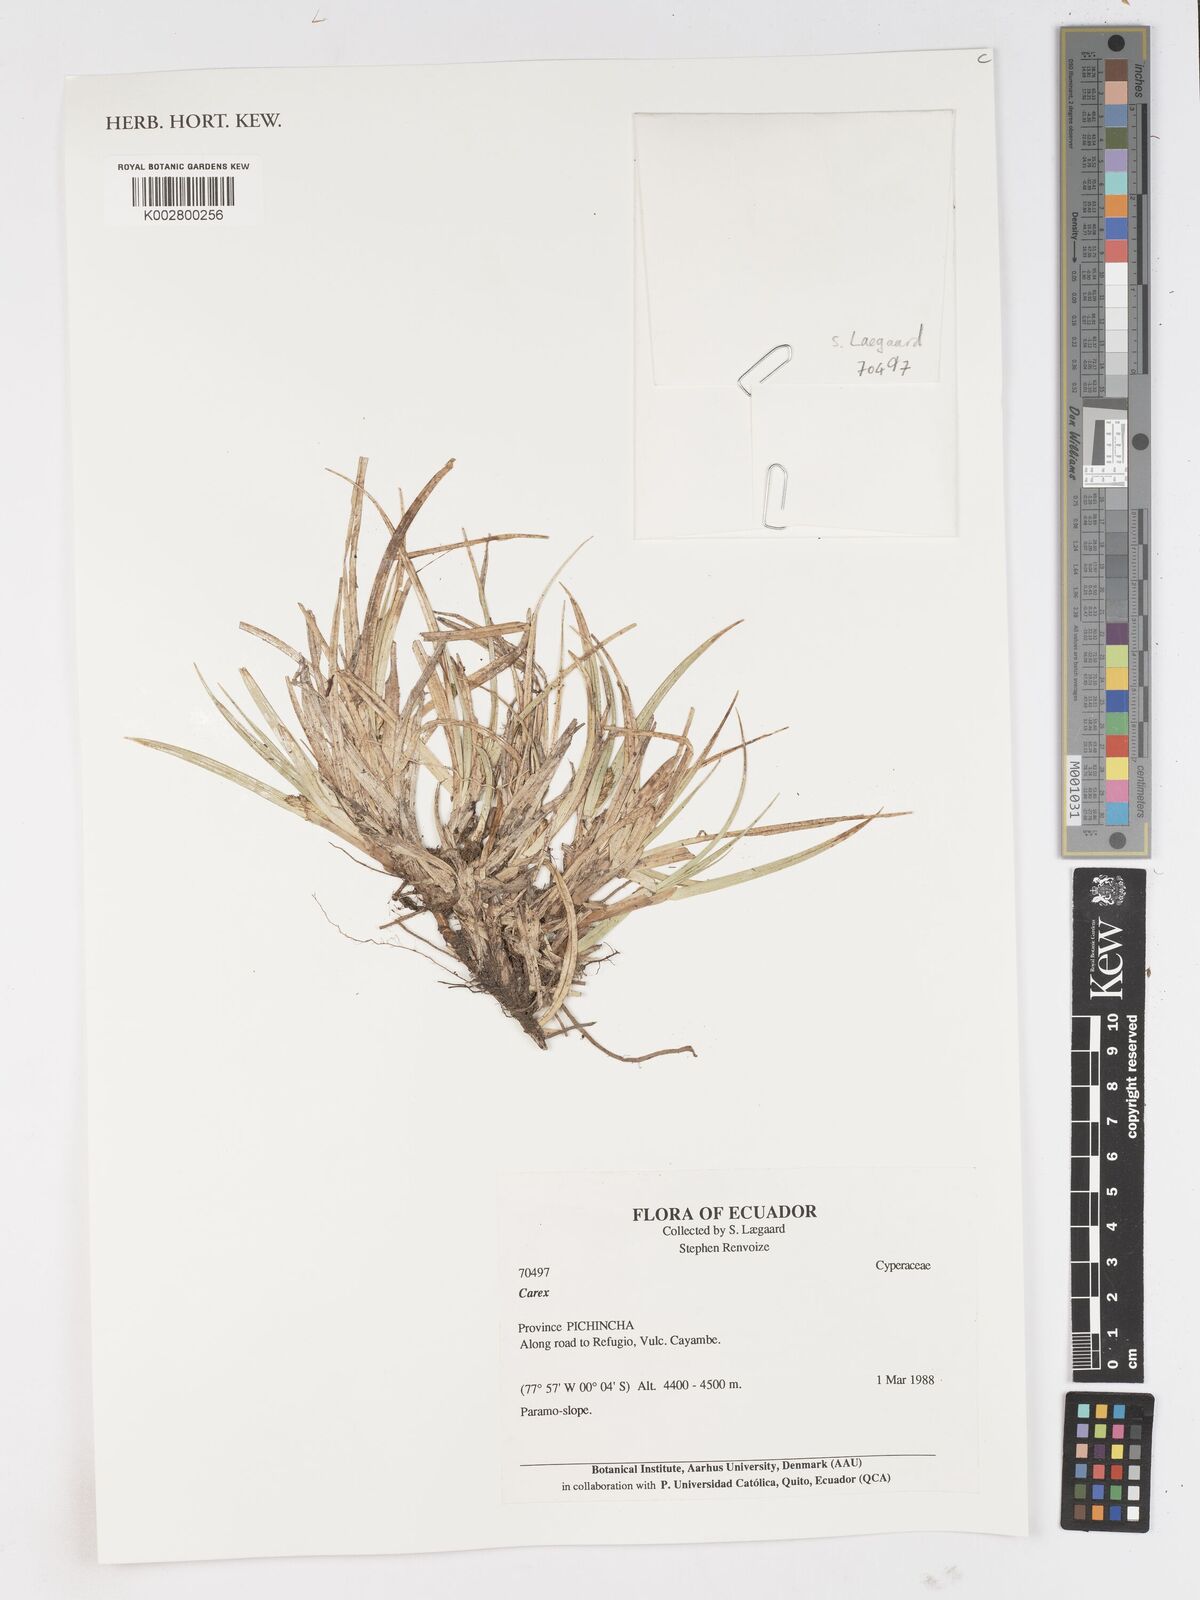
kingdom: Plantae
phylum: Tracheophyta
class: Liliopsida
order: Poales
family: Cyperaceae
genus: Carex
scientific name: Carex
